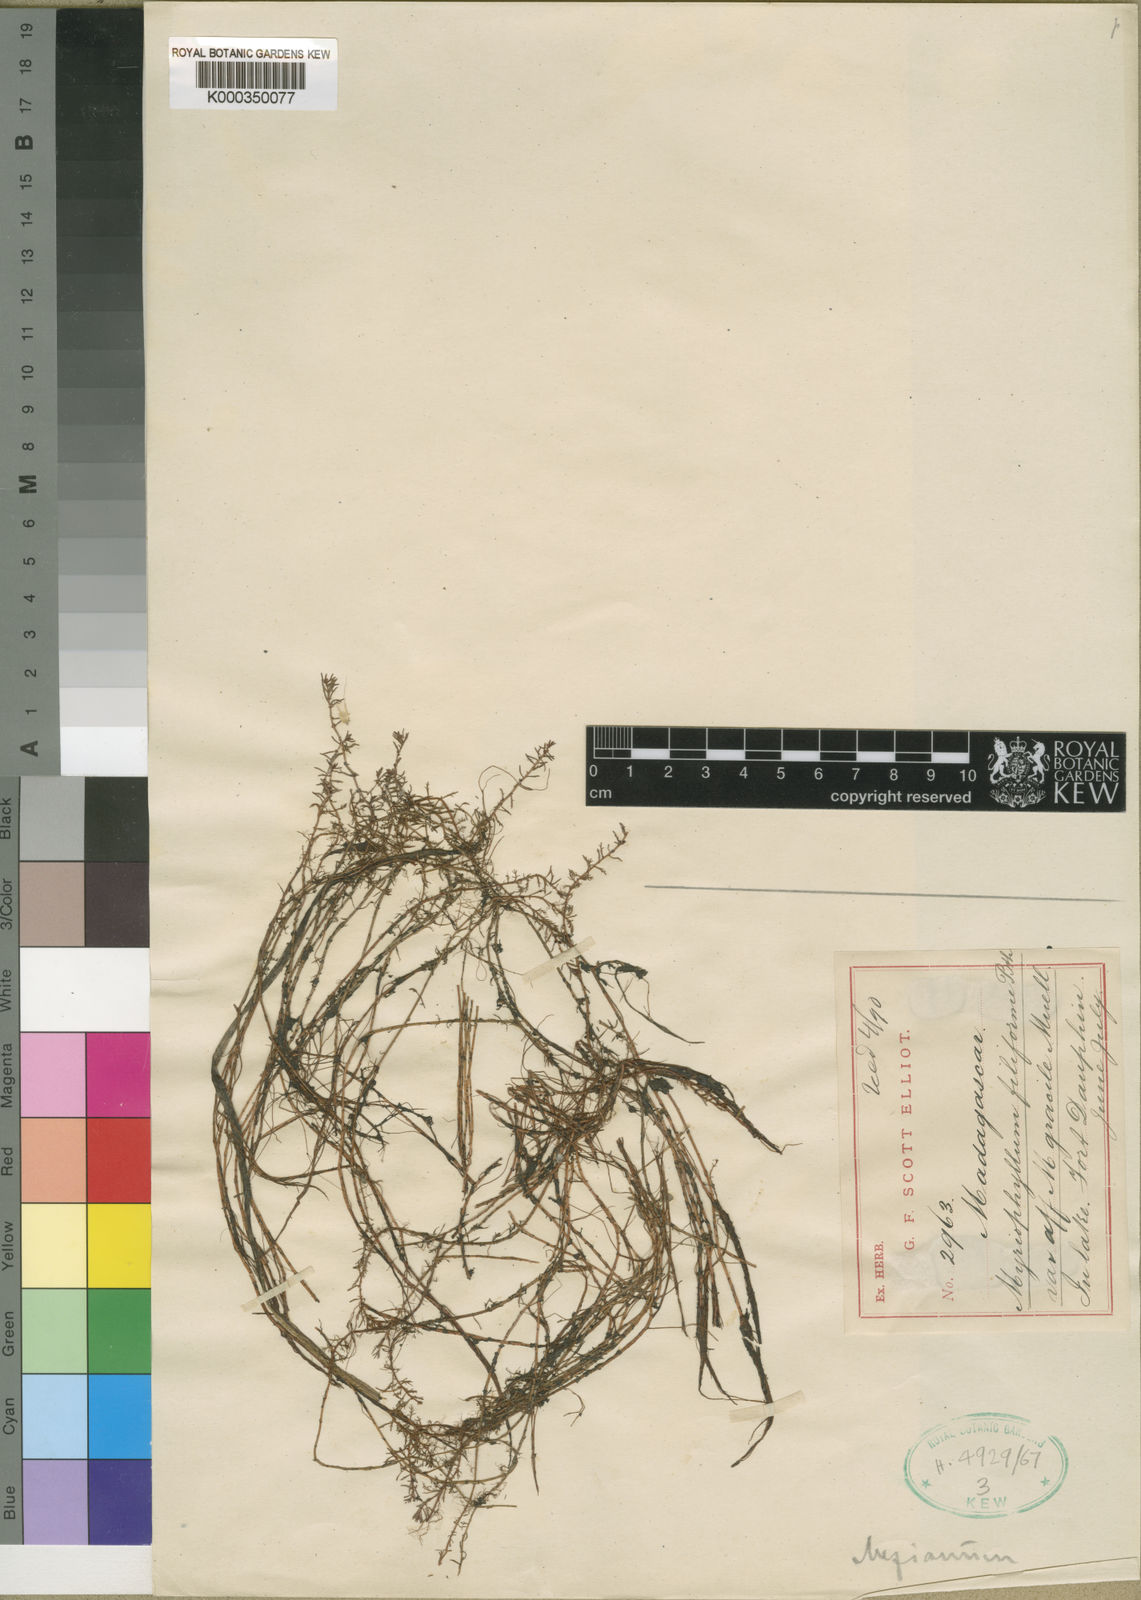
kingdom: Plantae
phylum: Tracheophyta
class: Magnoliopsida
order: Saxifragales
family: Haloragaceae
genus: Myriophyllum
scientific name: Myriophyllum mezianum
